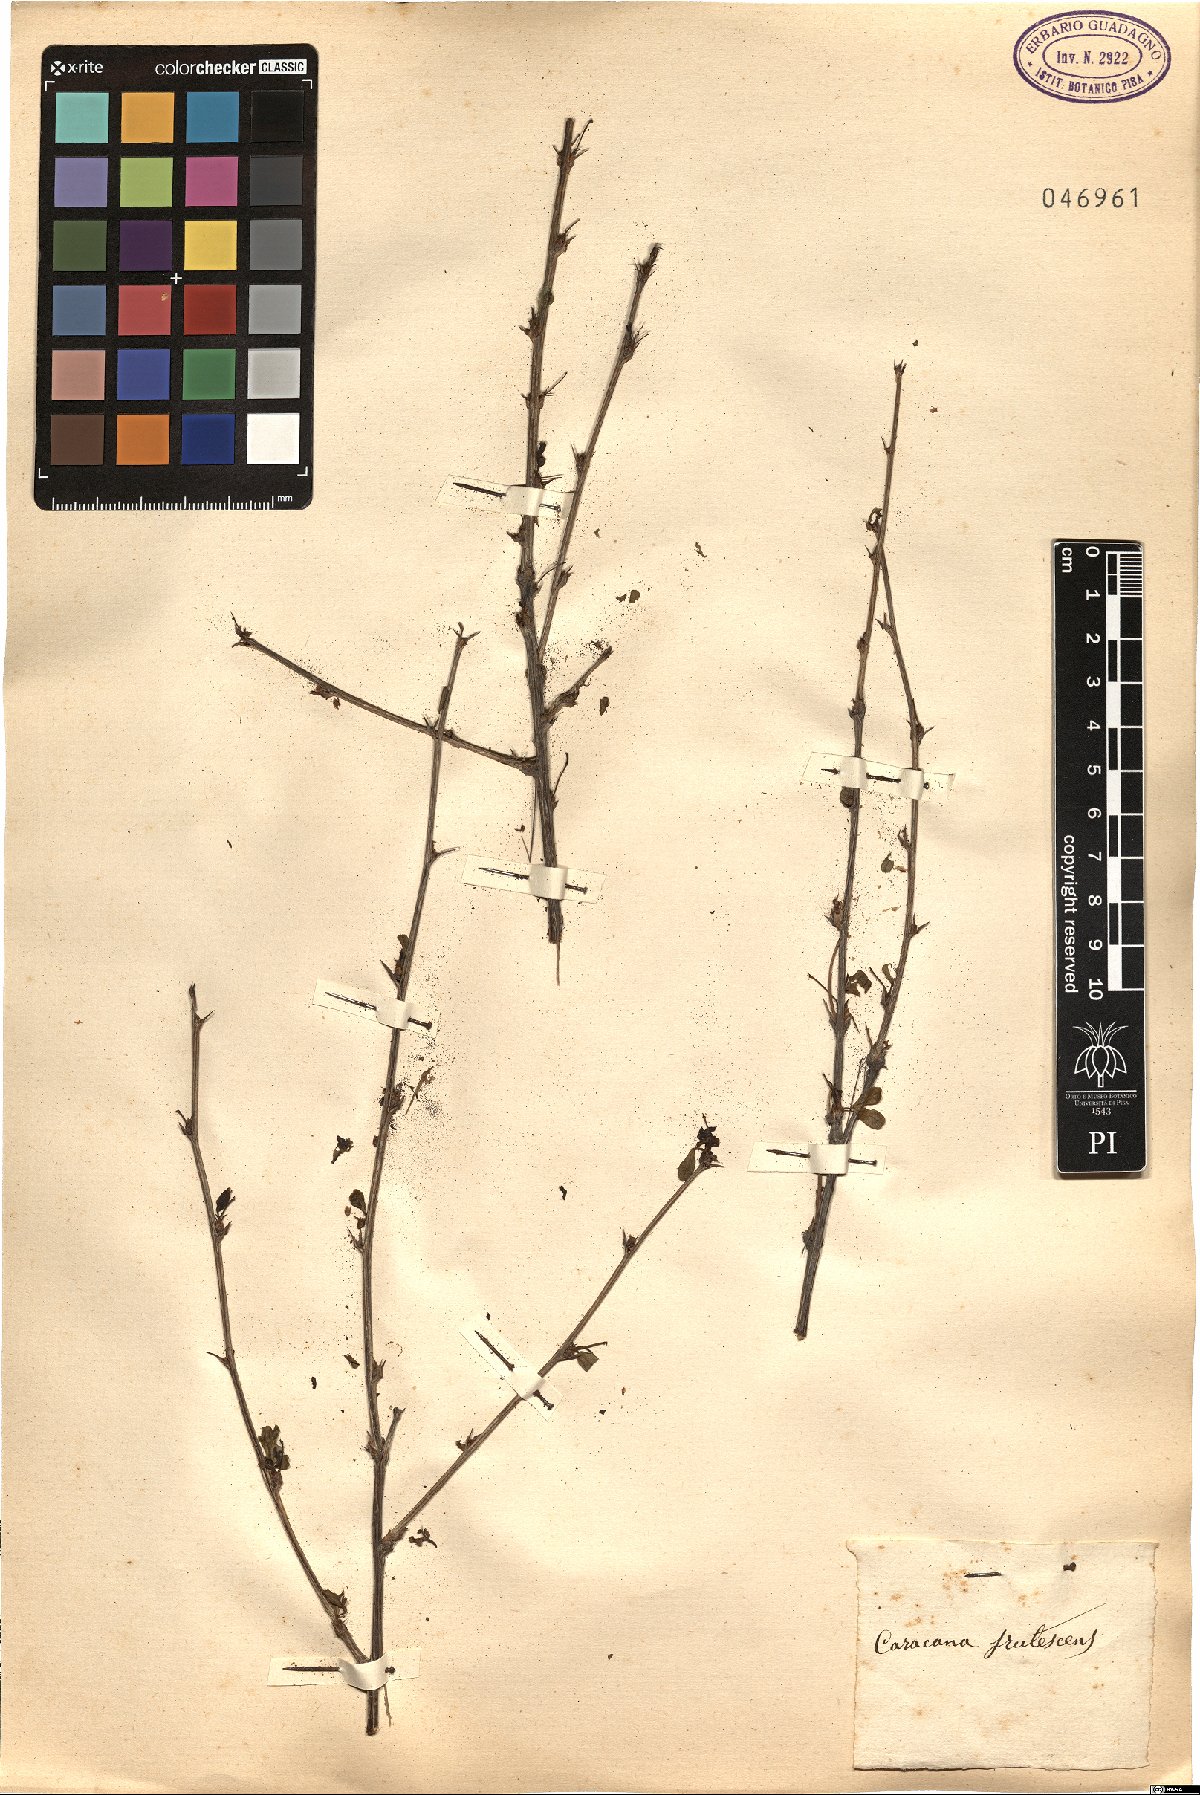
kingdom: Plantae
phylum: Tracheophyta
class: Magnoliopsida
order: Fabales
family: Fabaceae
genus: Caragana
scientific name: Caragana frutex
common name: Russian peashrub
